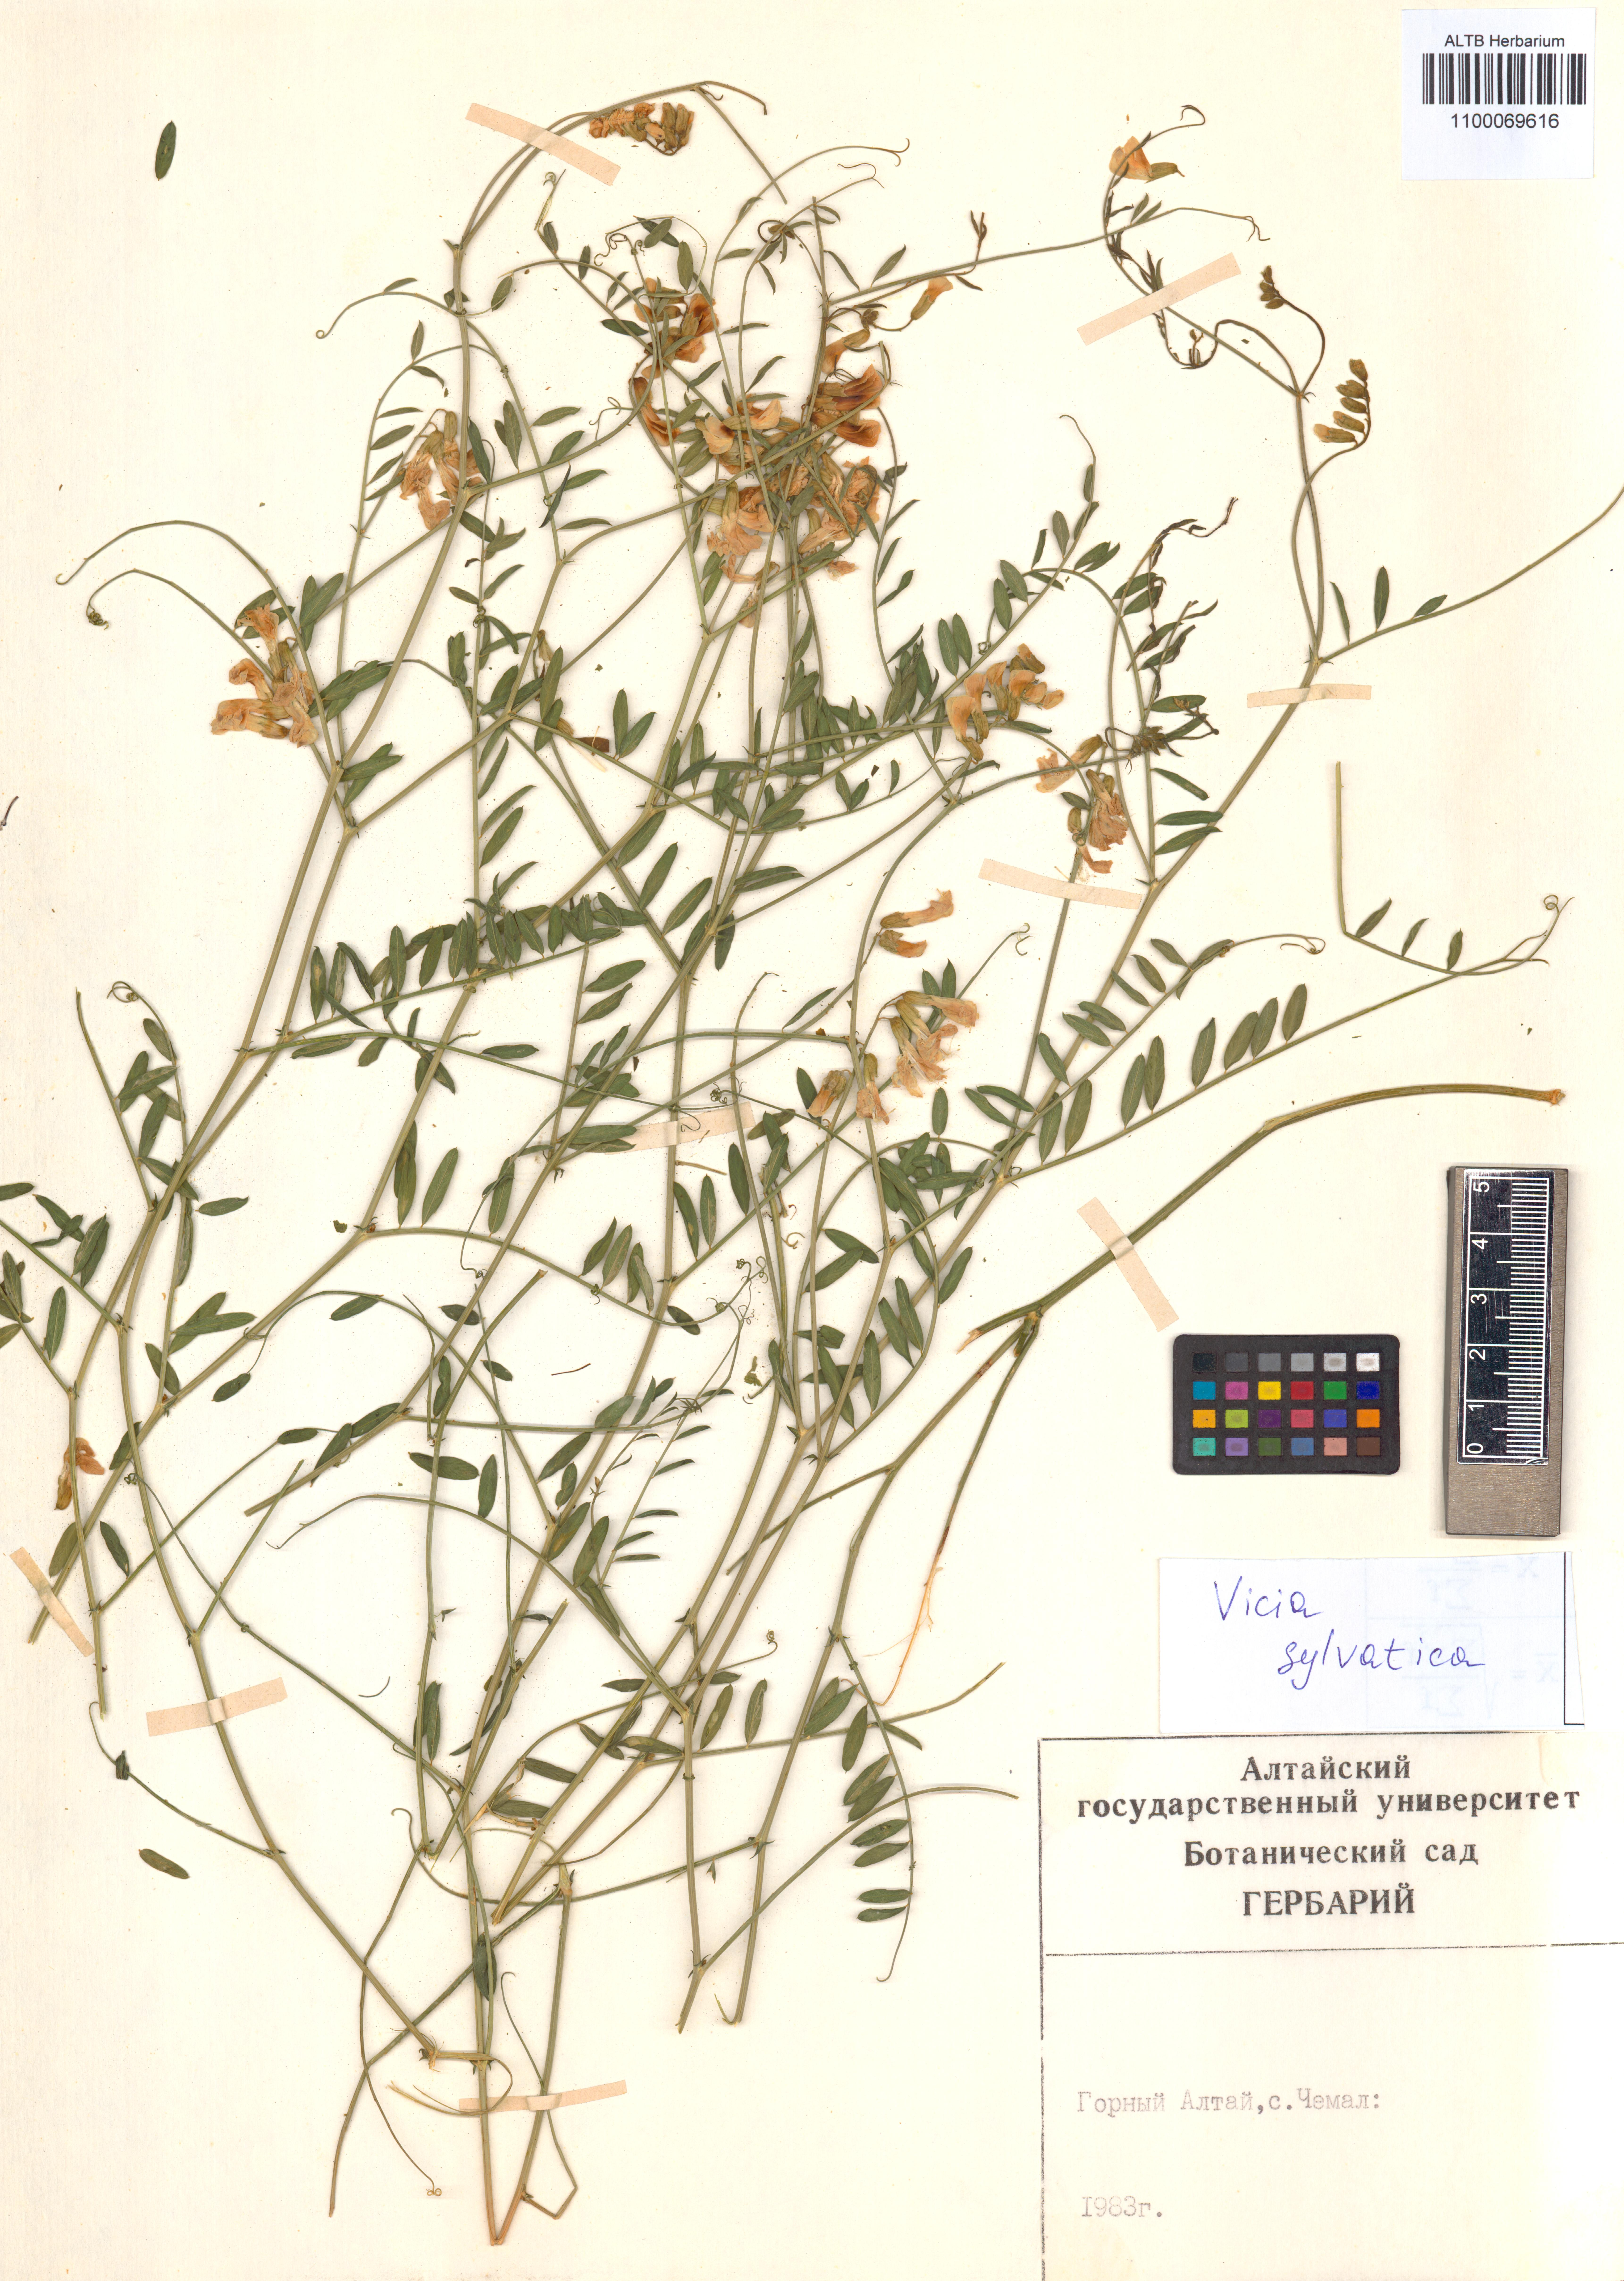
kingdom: Plantae
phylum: Tracheophyta
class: Magnoliopsida
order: Fabales
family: Fabaceae
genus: Vicia
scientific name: Vicia bakeri
